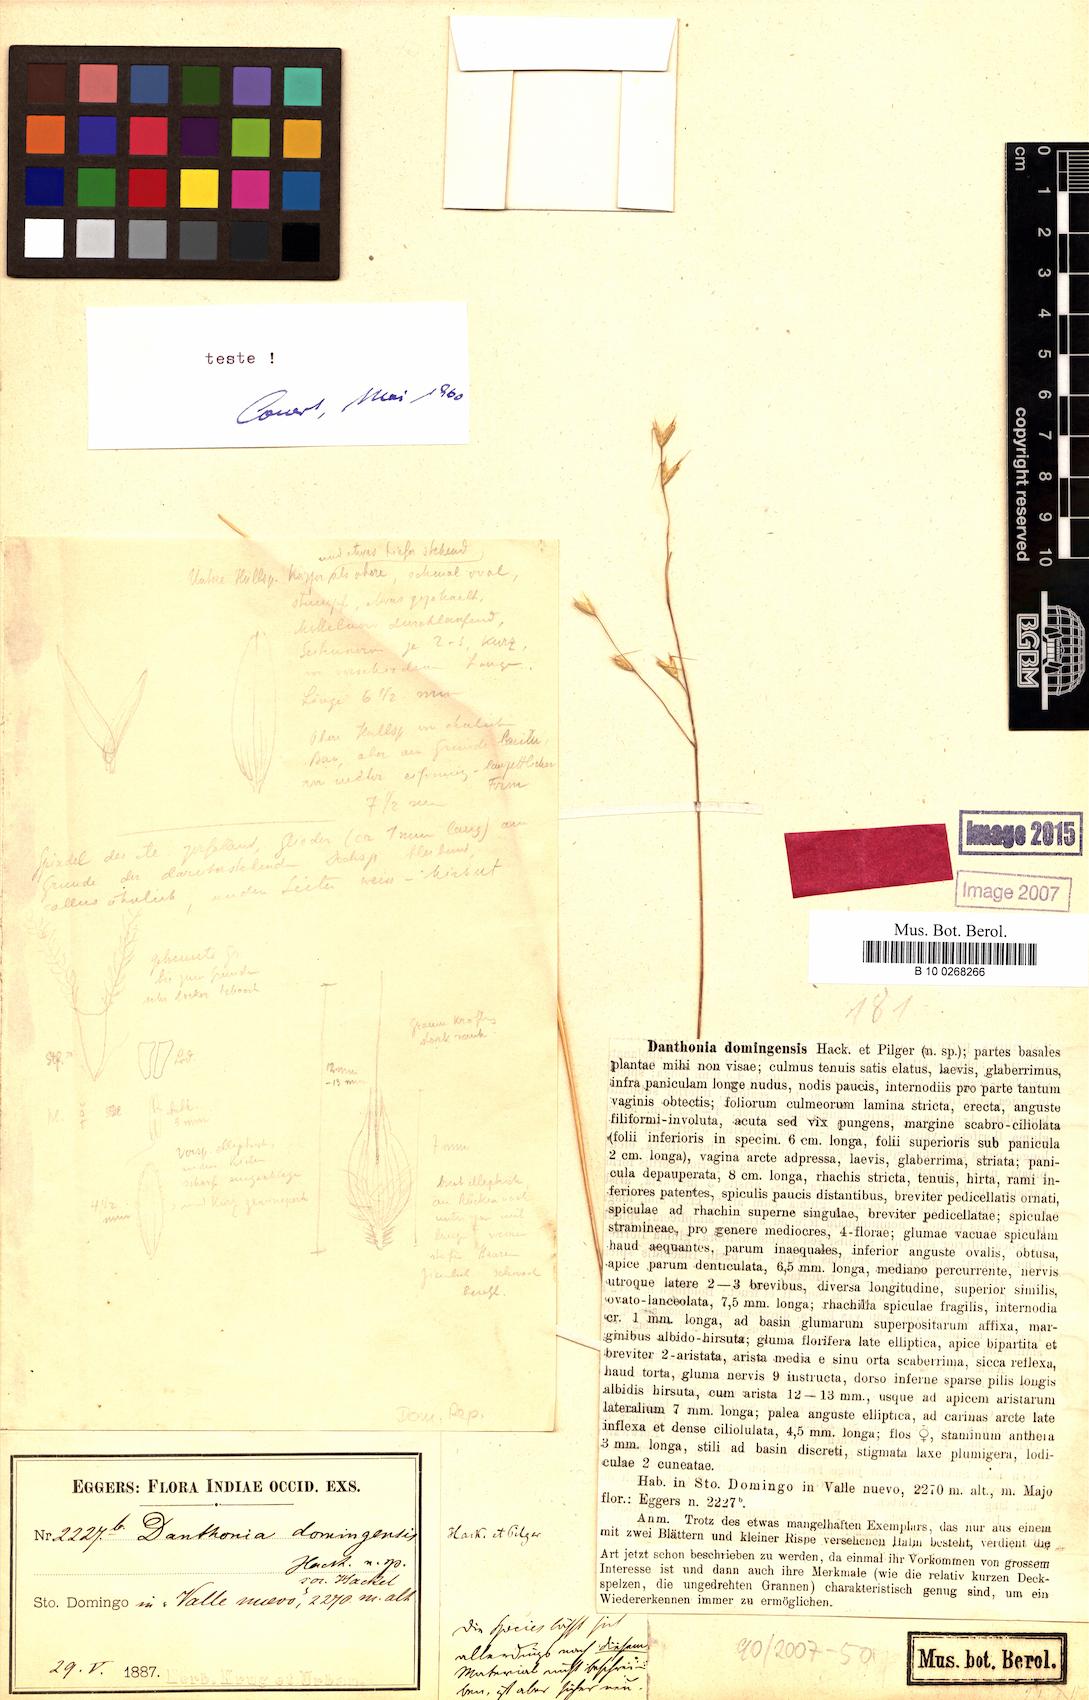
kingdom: Plantae
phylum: Tracheophyta
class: Liliopsida
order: Poales
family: Poaceae
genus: Danthonia
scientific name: Danthonia domingensis
